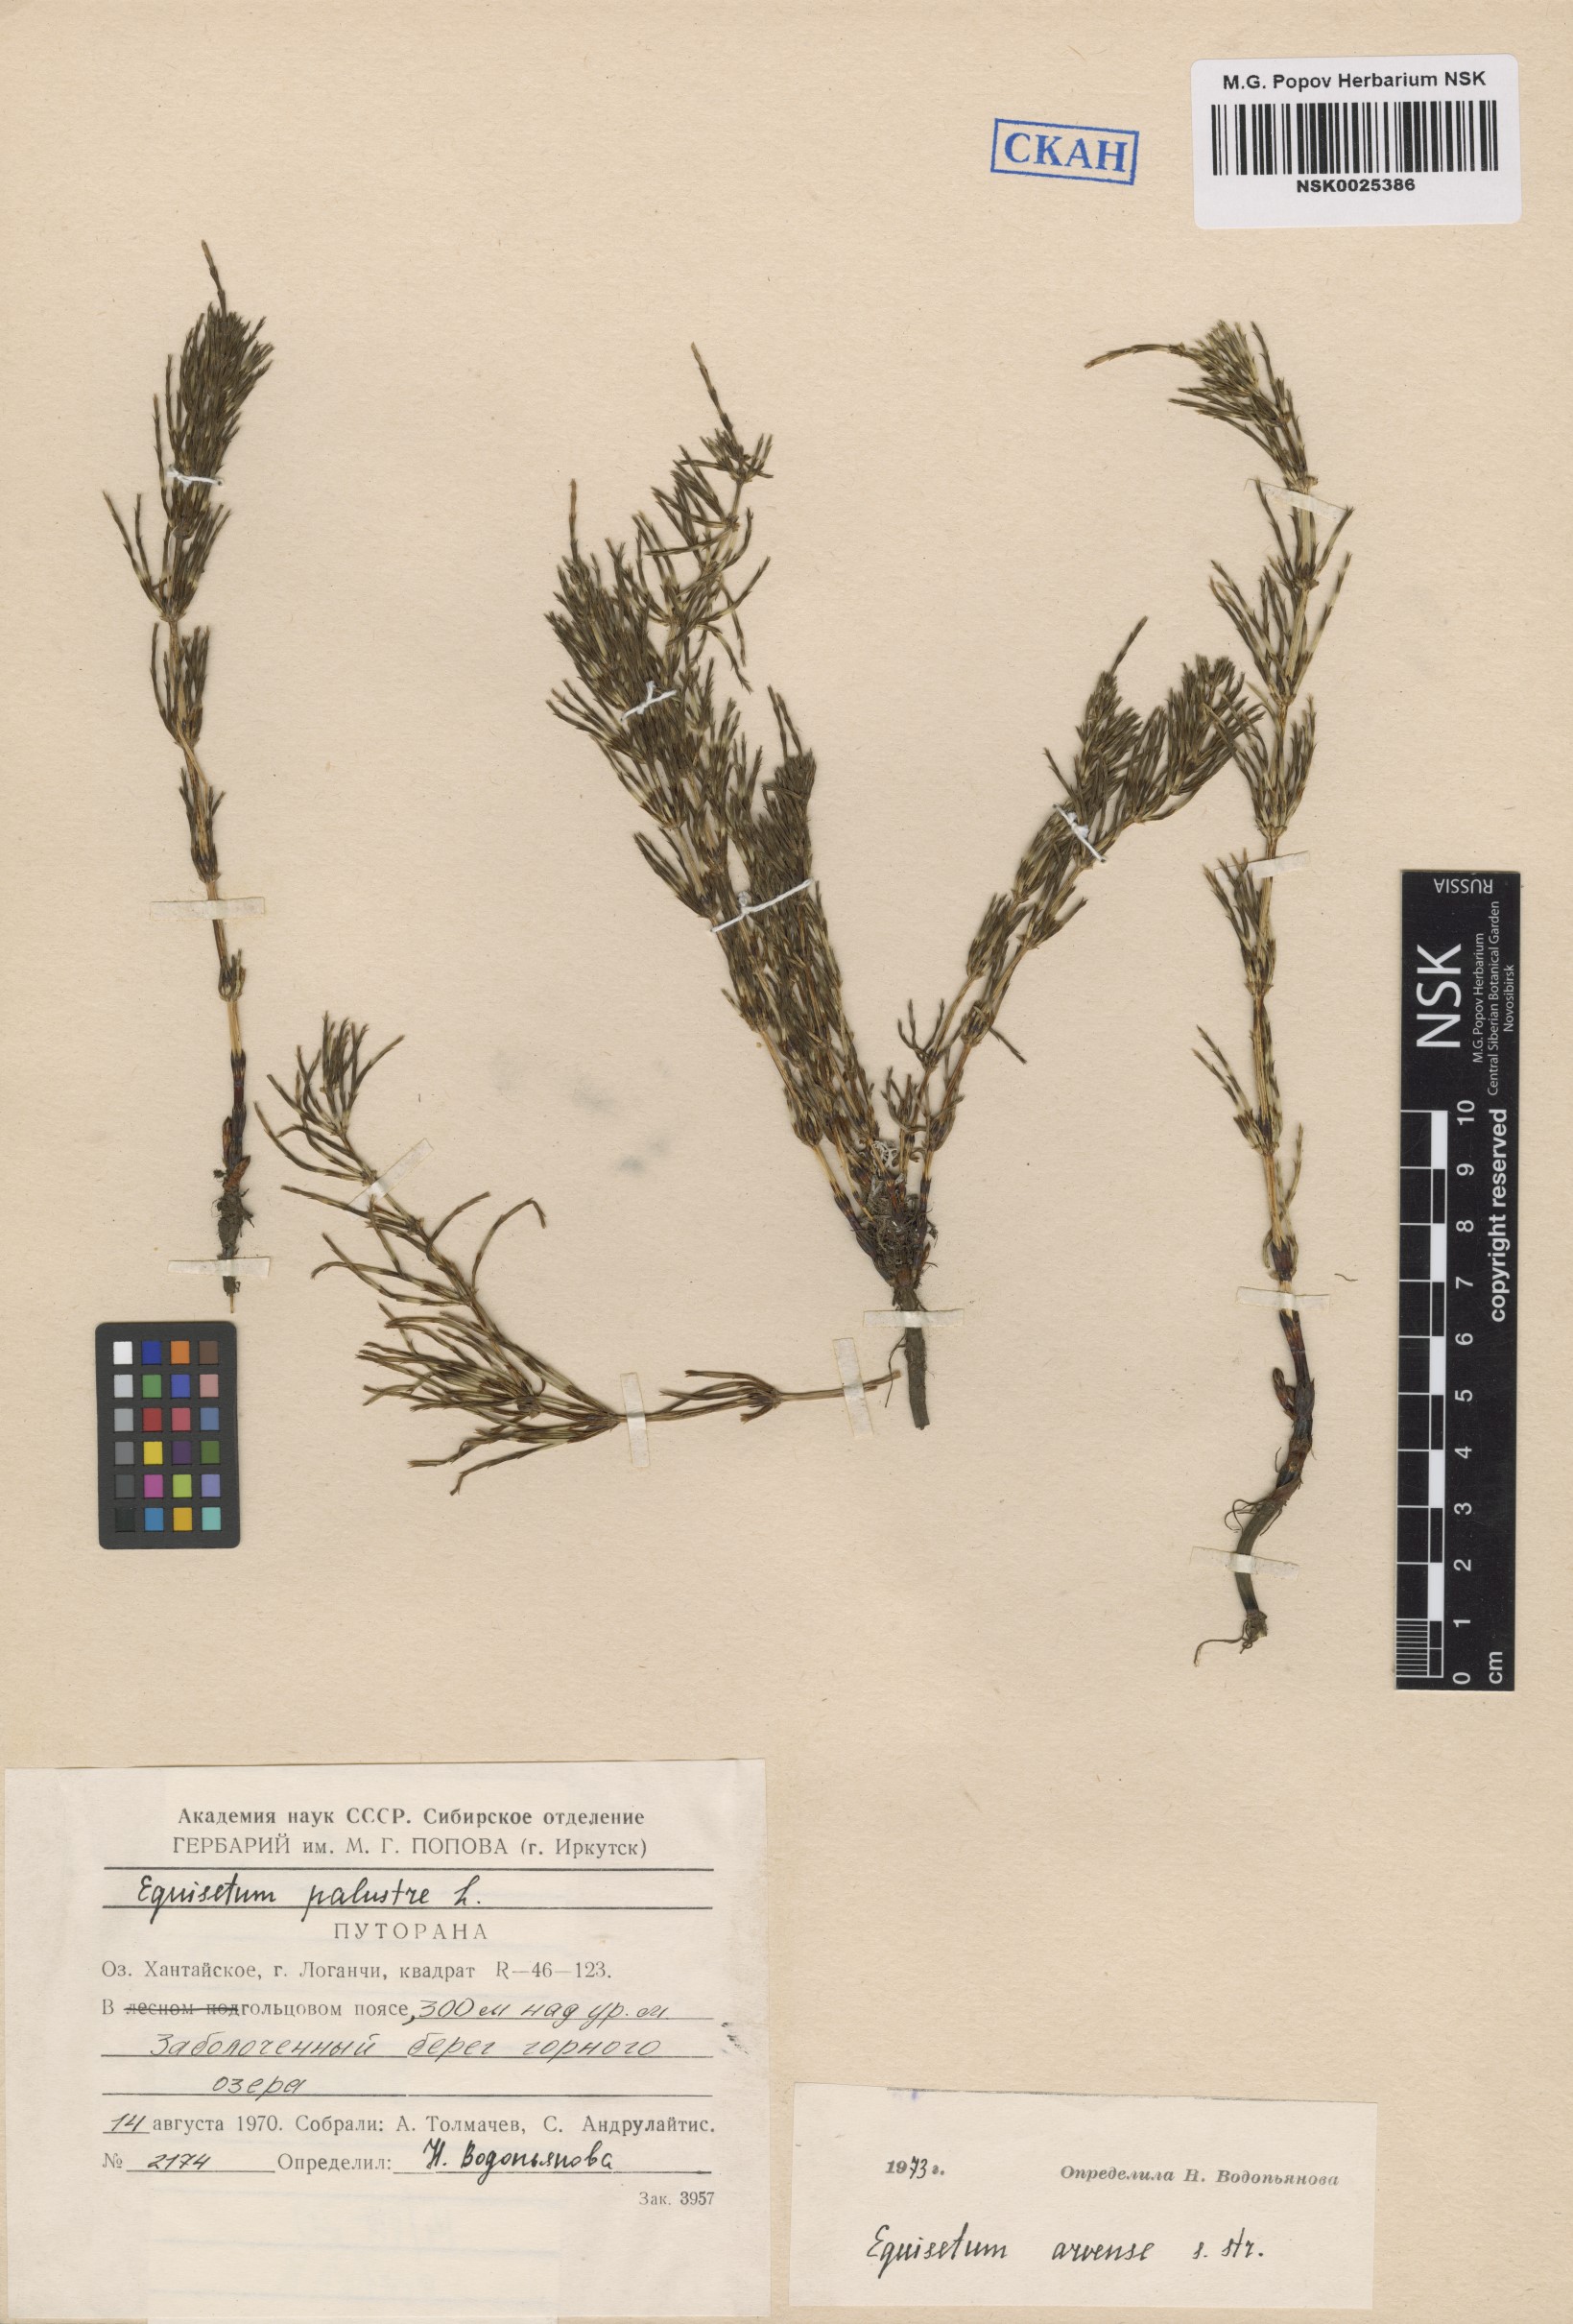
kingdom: Plantae
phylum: Tracheophyta
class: Polypodiopsida
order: Equisetales
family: Equisetaceae
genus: Equisetum
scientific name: Equisetum arvense
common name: Field horsetail
